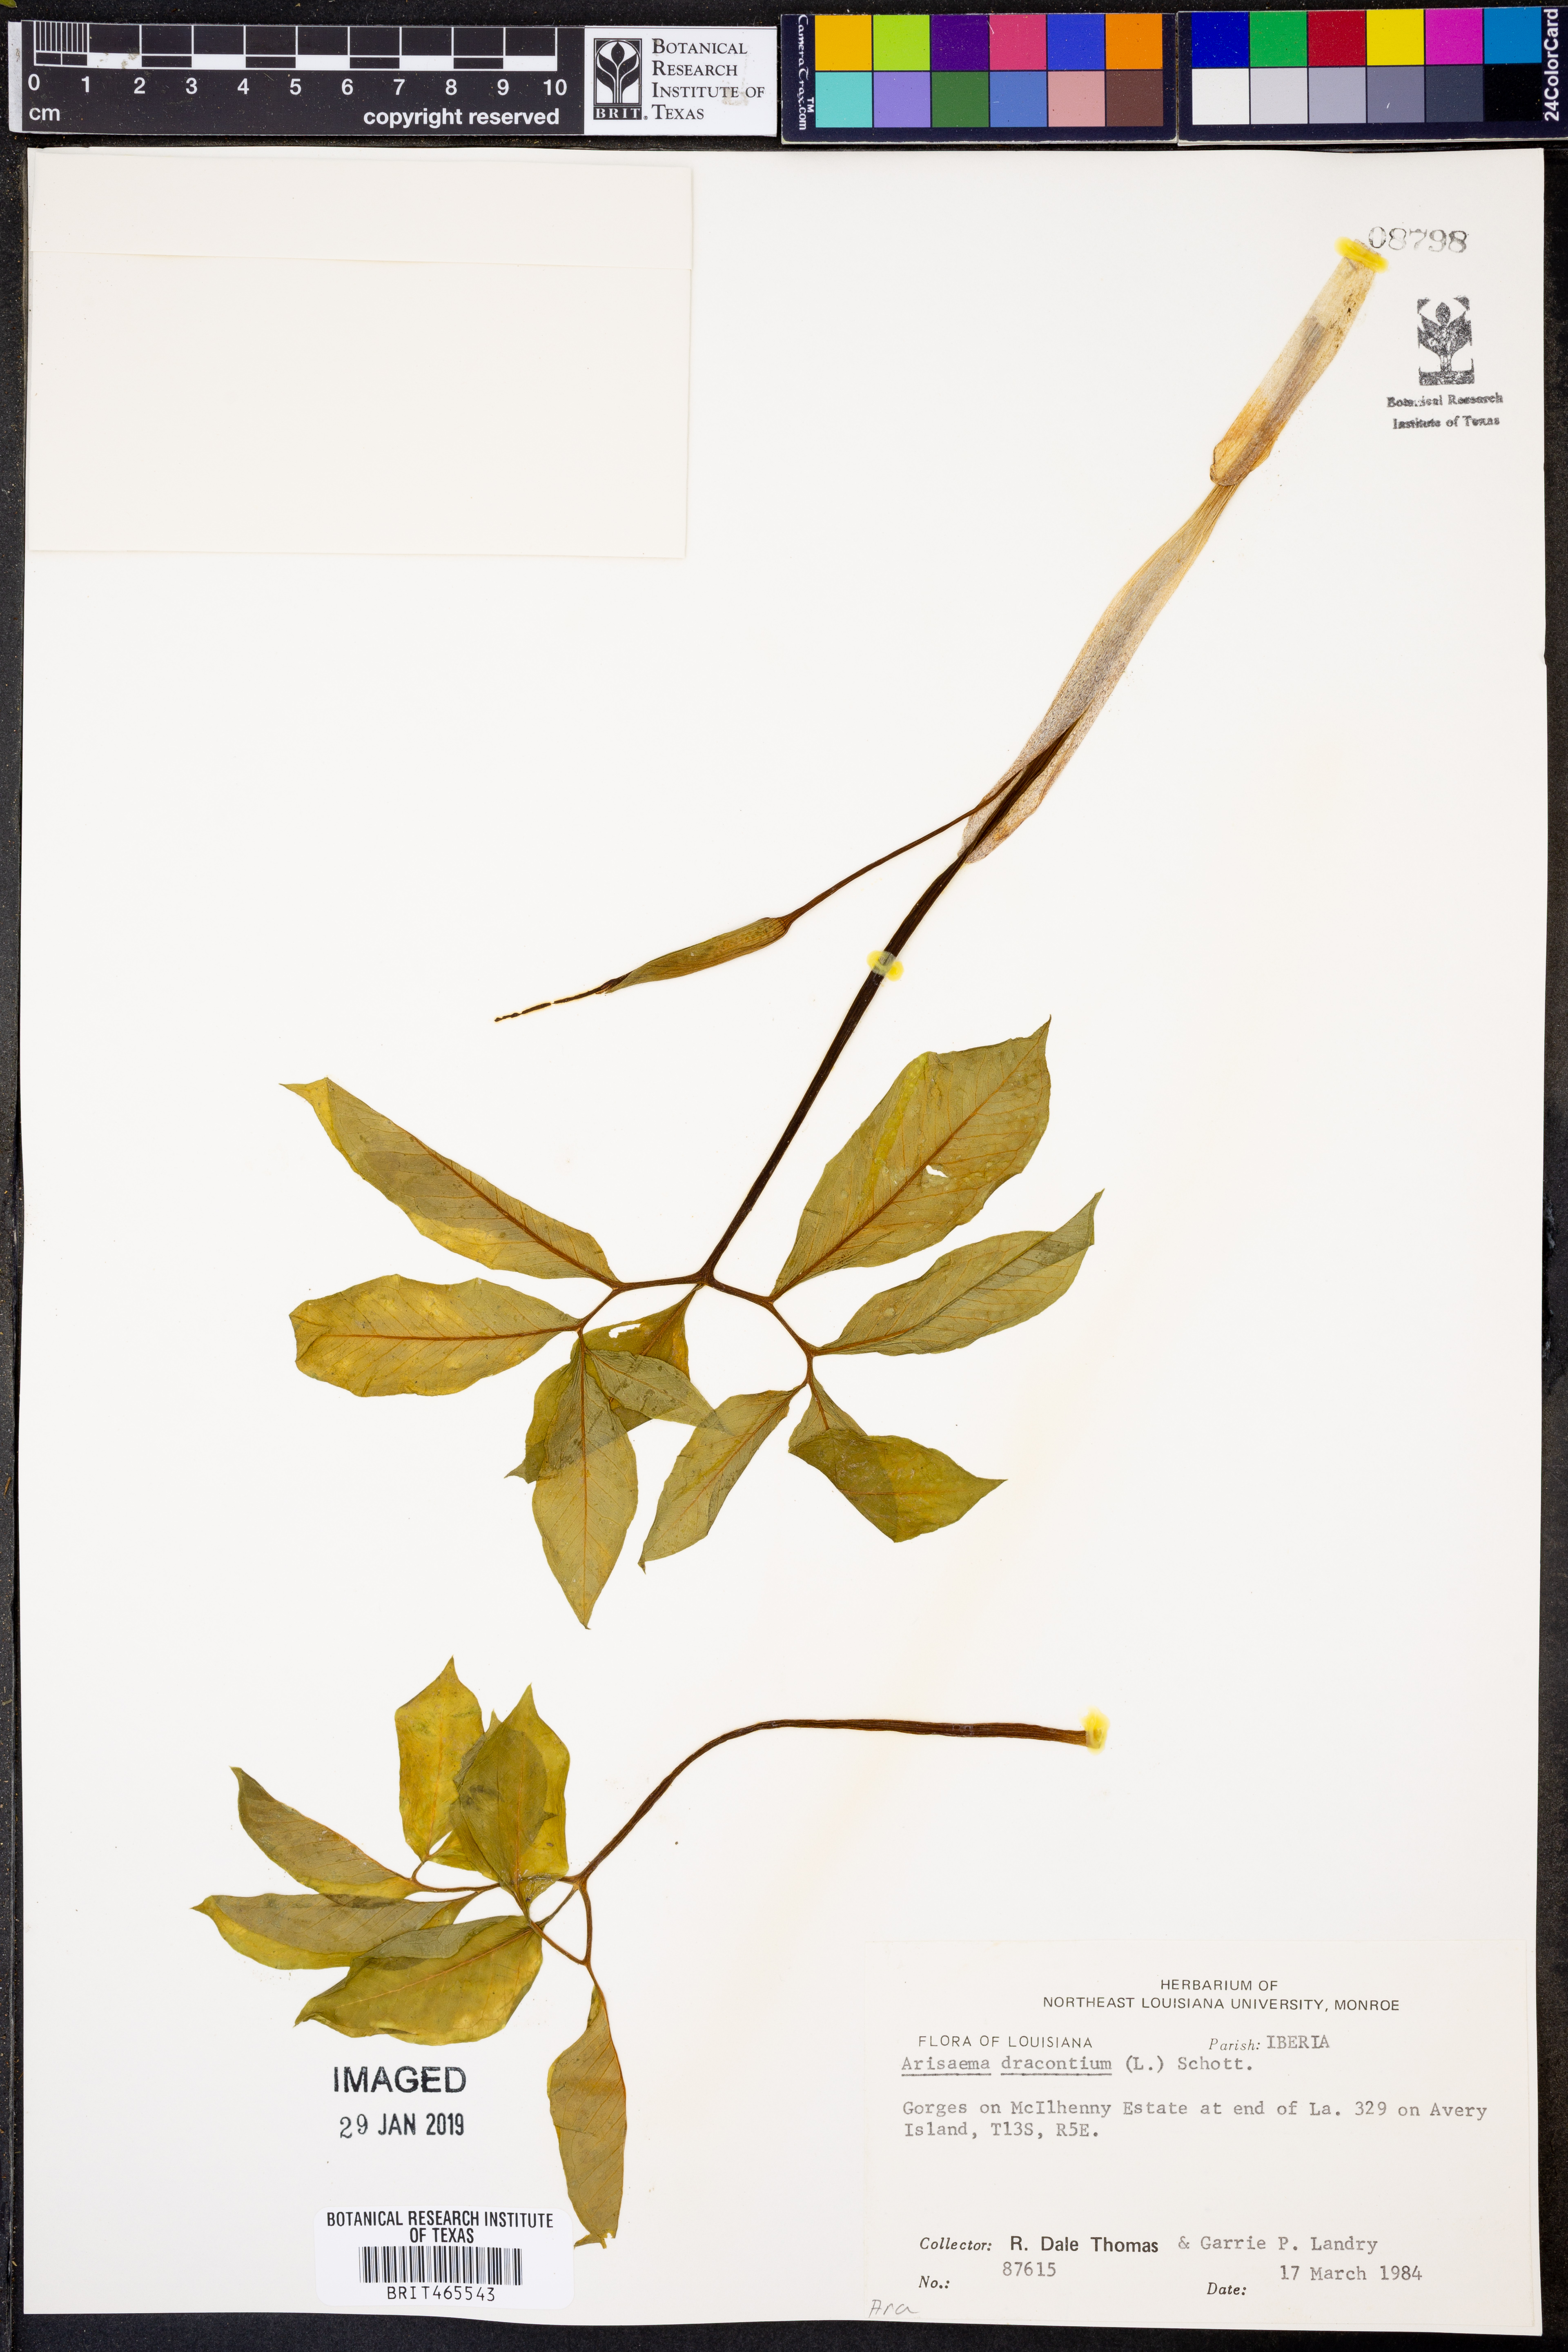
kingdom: Plantae
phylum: Tracheophyta
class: Liliopsida
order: Alismatales
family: Araceae
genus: Arisaema
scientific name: Arisaema dracontium
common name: Dragon-arum
